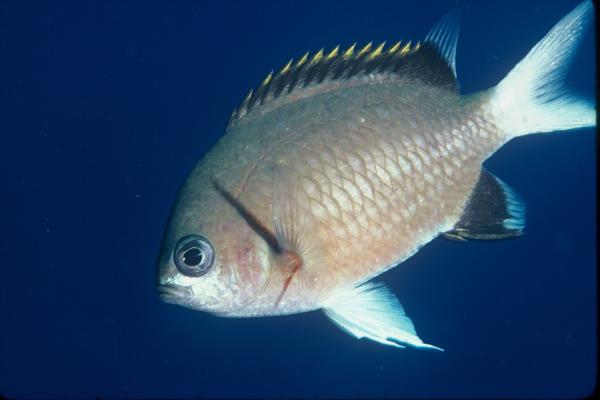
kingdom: Animalia
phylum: Chordata
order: Perciformes
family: Pomacentridae
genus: Chromis
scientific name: Chromis pembae
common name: Pemba chromis
